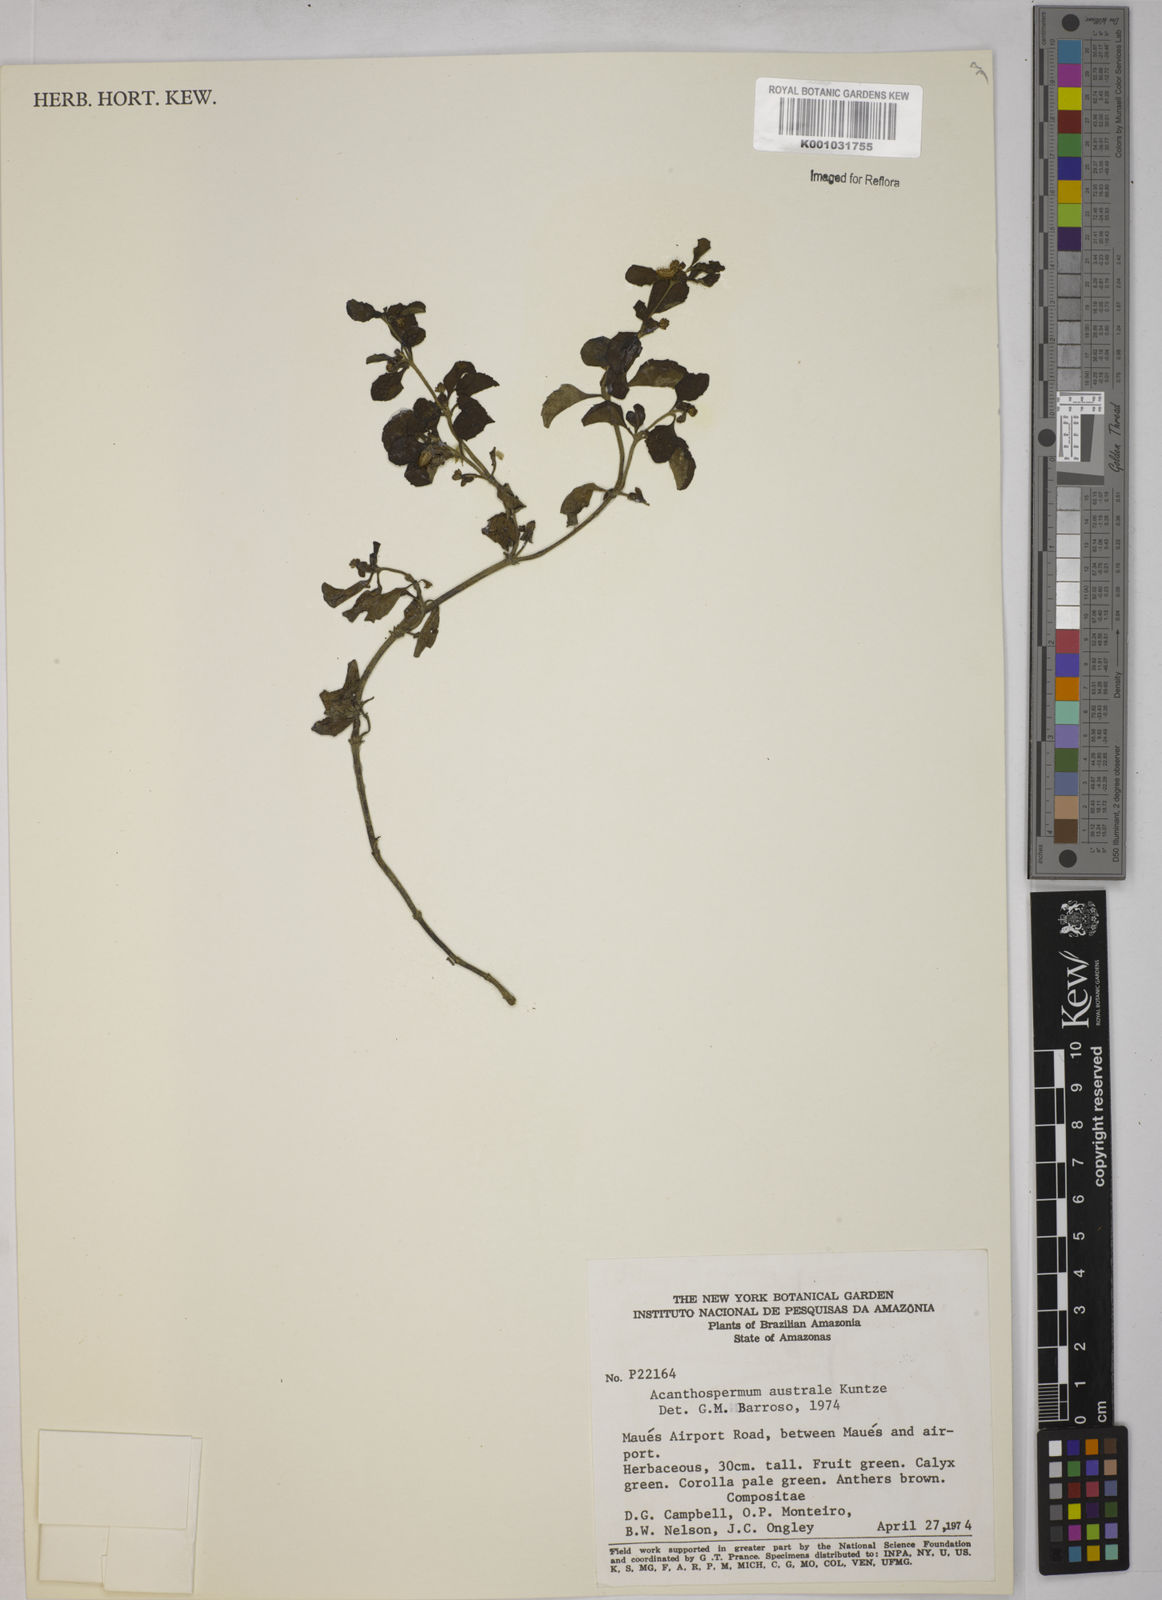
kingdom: Plantae
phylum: Tracheophyta
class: Magnoliopsida
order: Asterales
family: Asteraceae
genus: Acanthospermum
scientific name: Acanthospermum australe
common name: Paraguayan starbur
